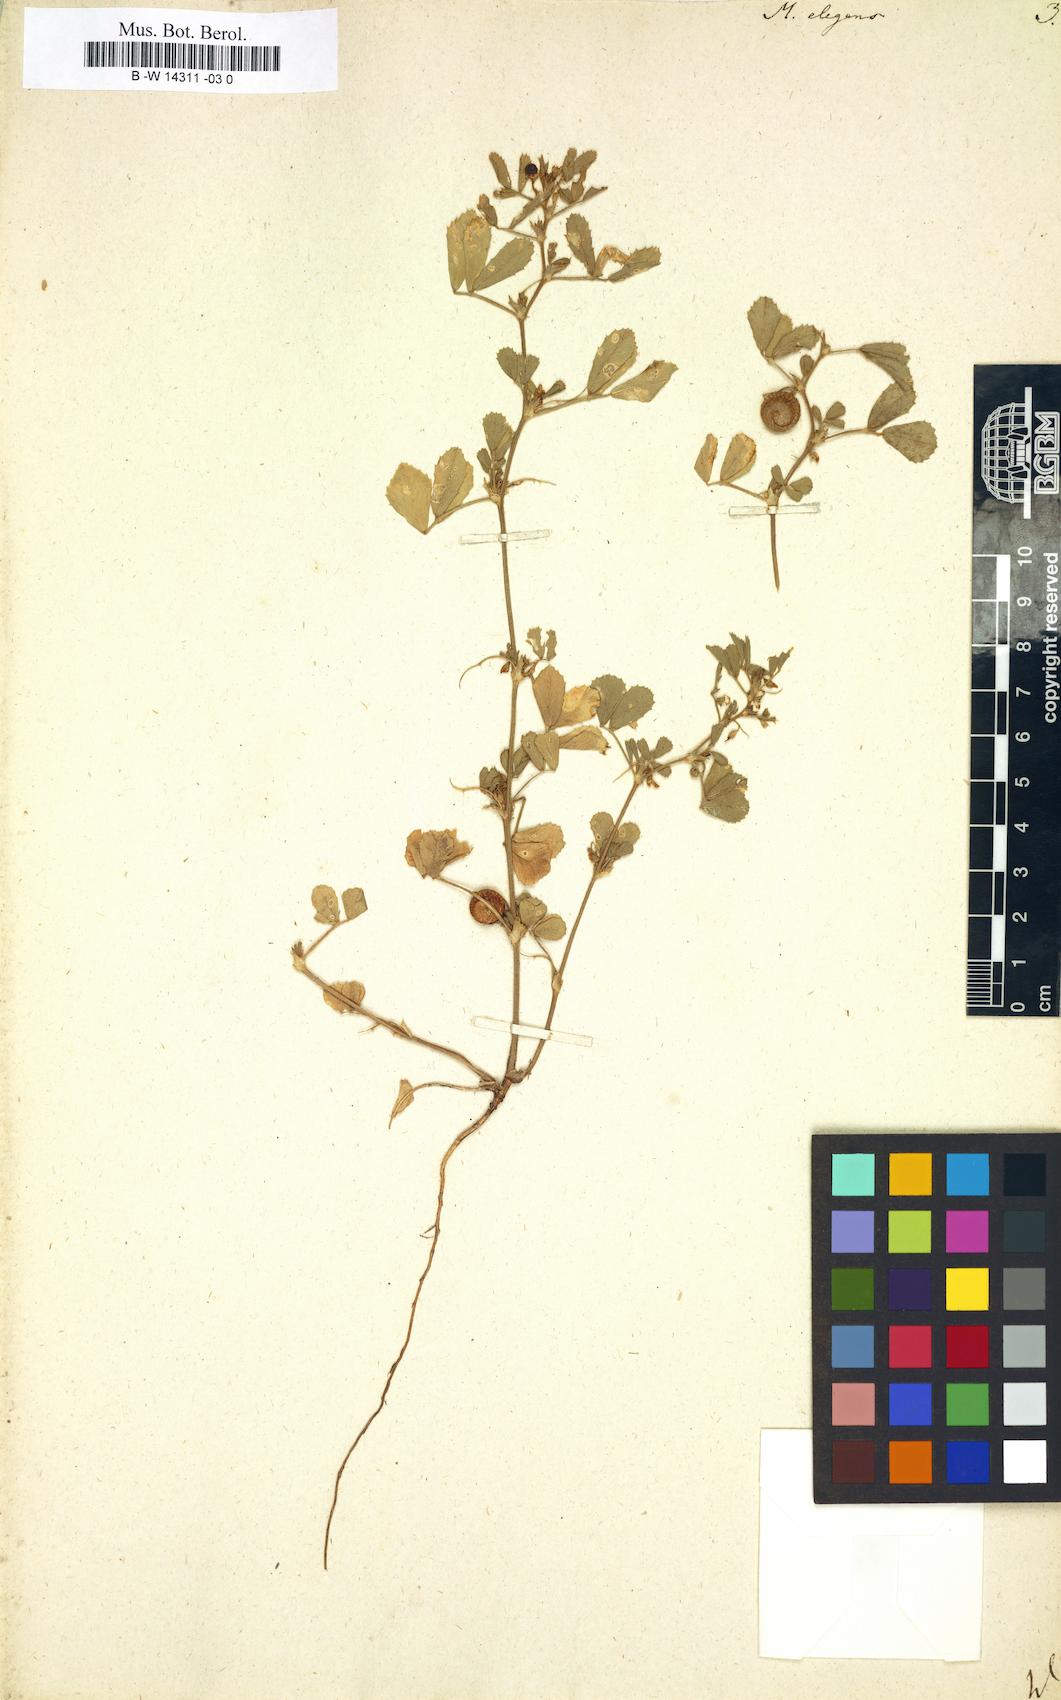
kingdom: Plantae
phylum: Tracheophyta
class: Magnoliopsida
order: Fabales
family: Fabaceae
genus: Medicago
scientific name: Medicago rugosa
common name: Gama medic
